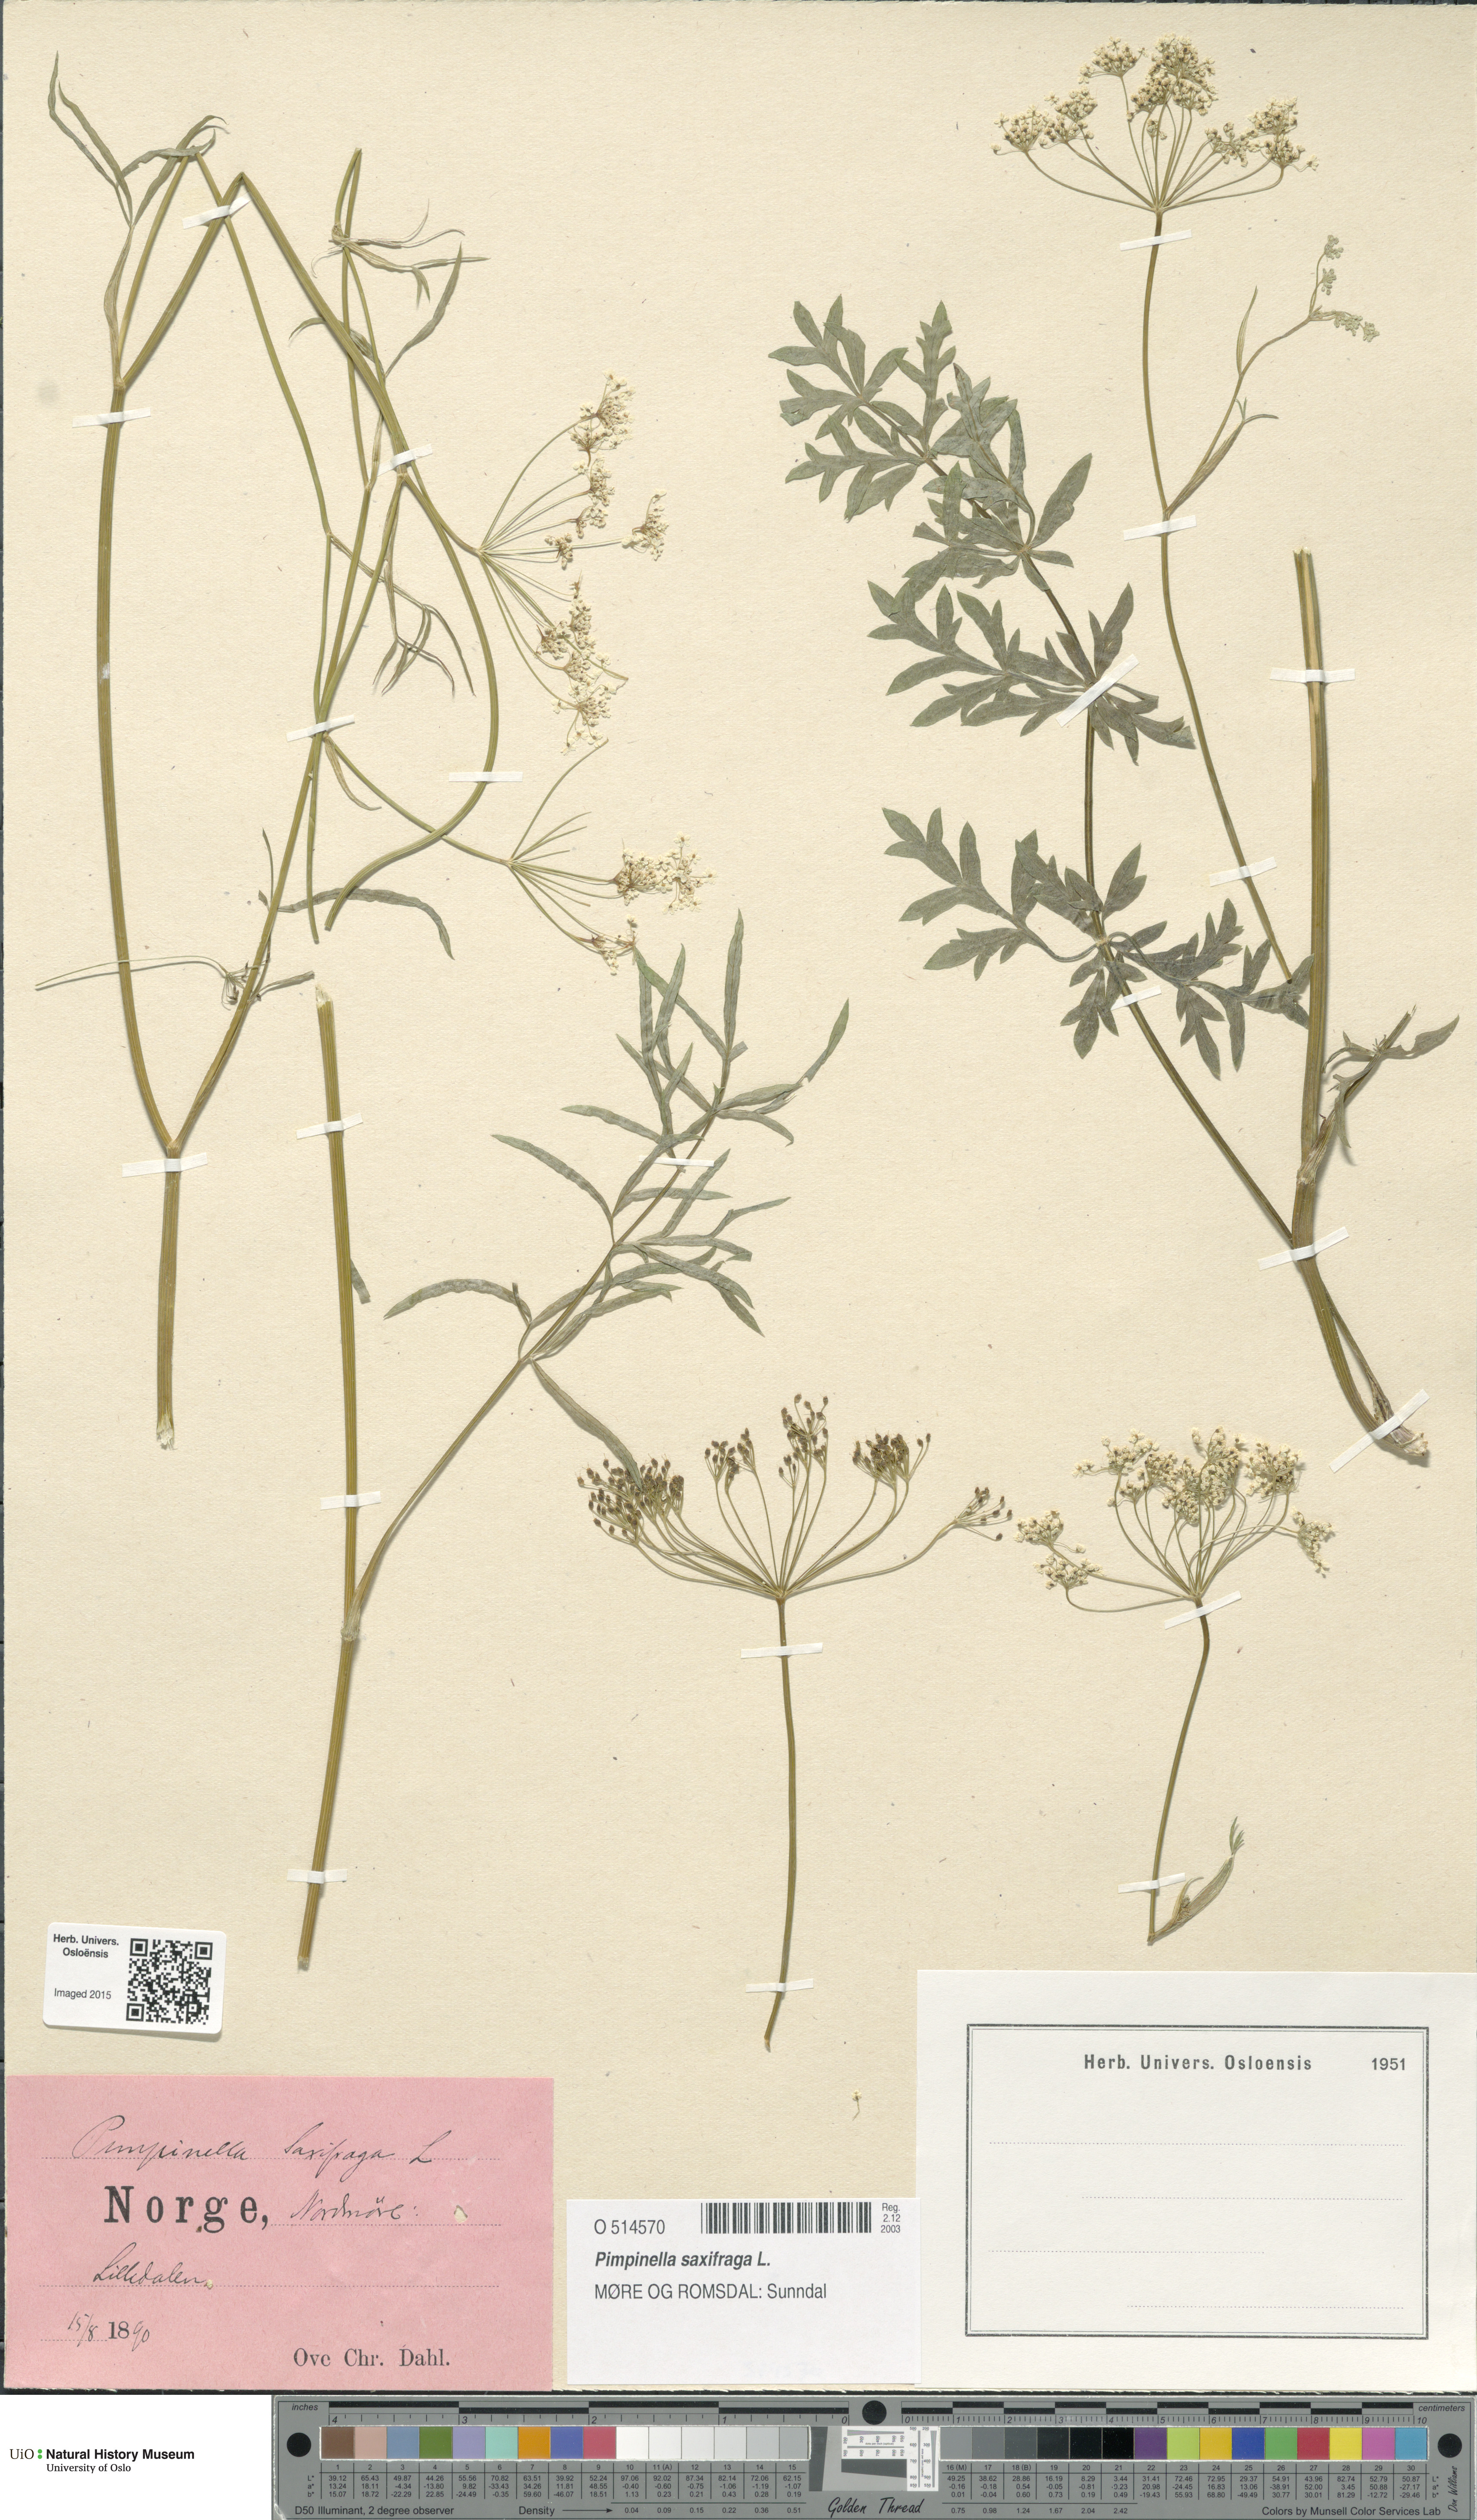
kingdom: Plantae
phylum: Tracheophyta
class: Magnoliopsida
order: Apiales
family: Apiaceae
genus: Pimpinella
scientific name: Pimpinella saxifraga
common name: Burnet-saxifrage
